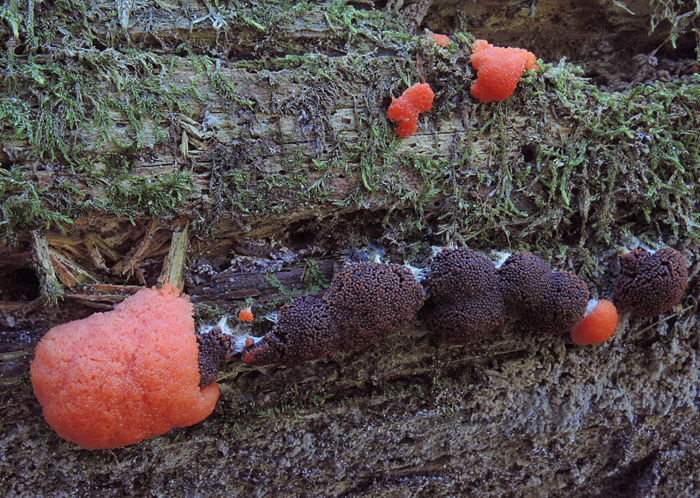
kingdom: Protozoa
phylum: Mycetozoa
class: Myxomycetes
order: Cribrariales
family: Tubiferaceae
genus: Tubifera
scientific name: Tubifera ferruginosa
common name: kanel-støvrør
